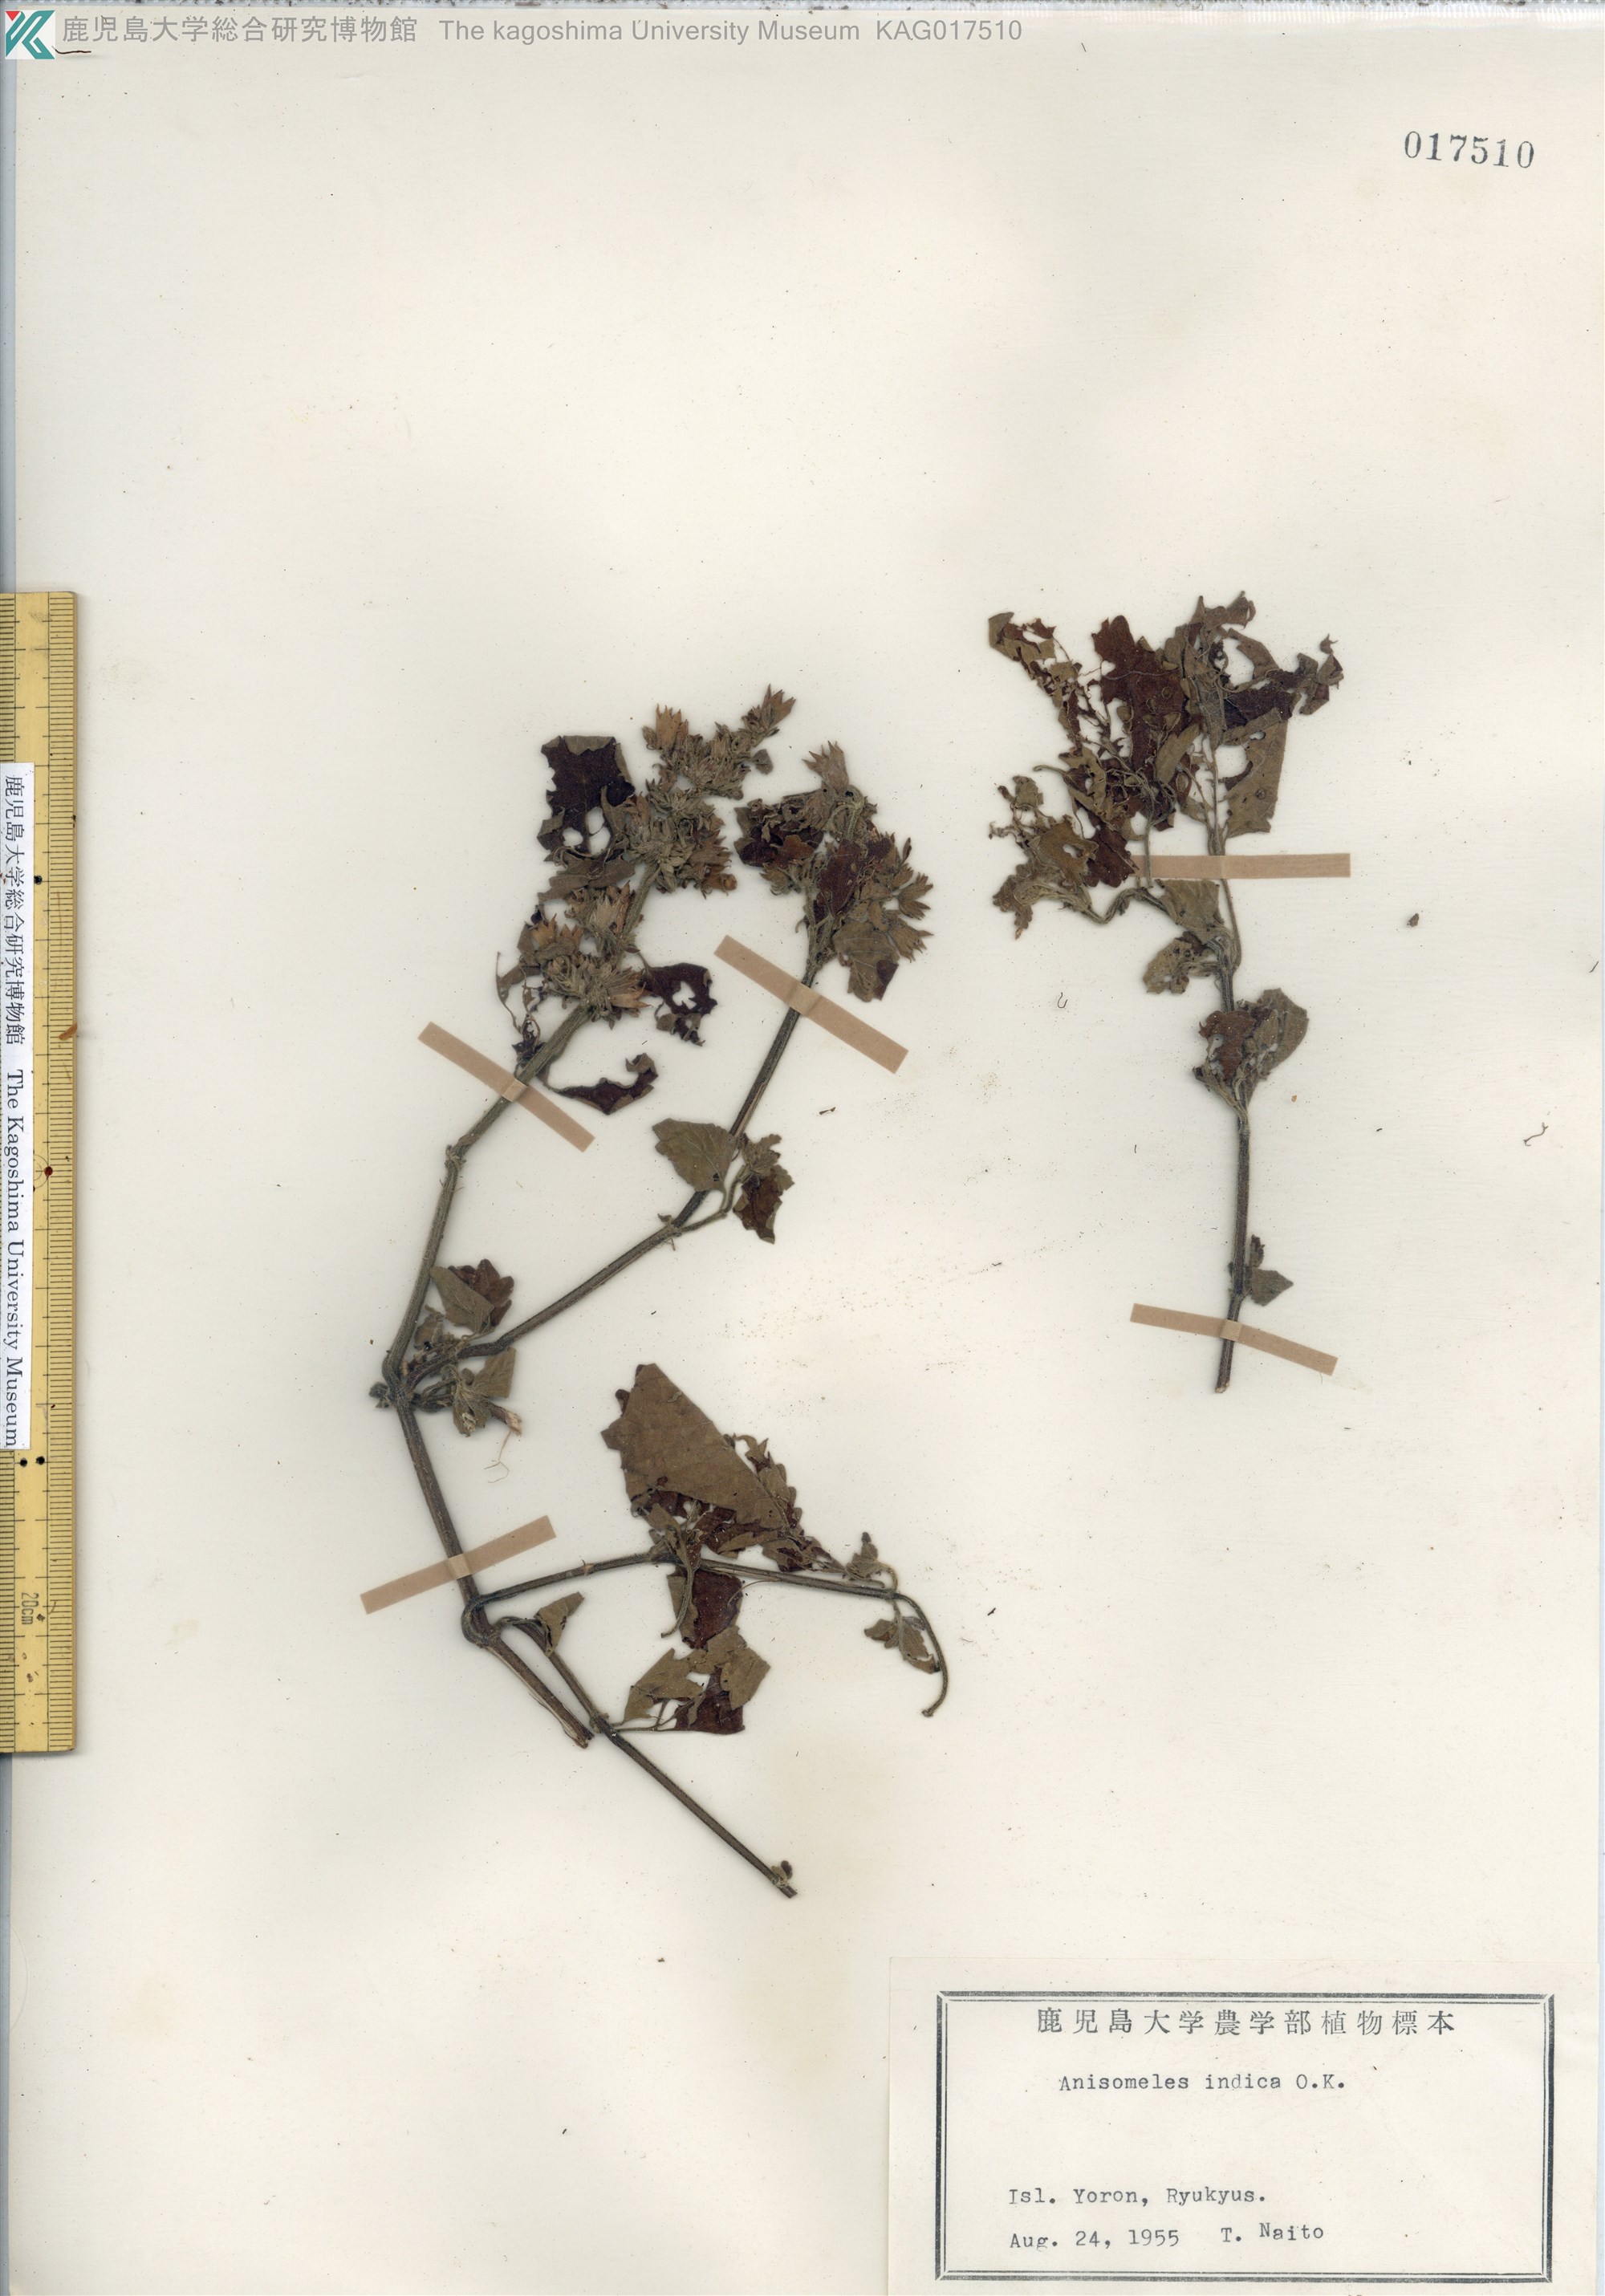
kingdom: Plantae
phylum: Tracheophyta
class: Magnoliopsida
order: Lamiales
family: Lamiaceae
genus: Anisomeles
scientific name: Anisomeles indica
